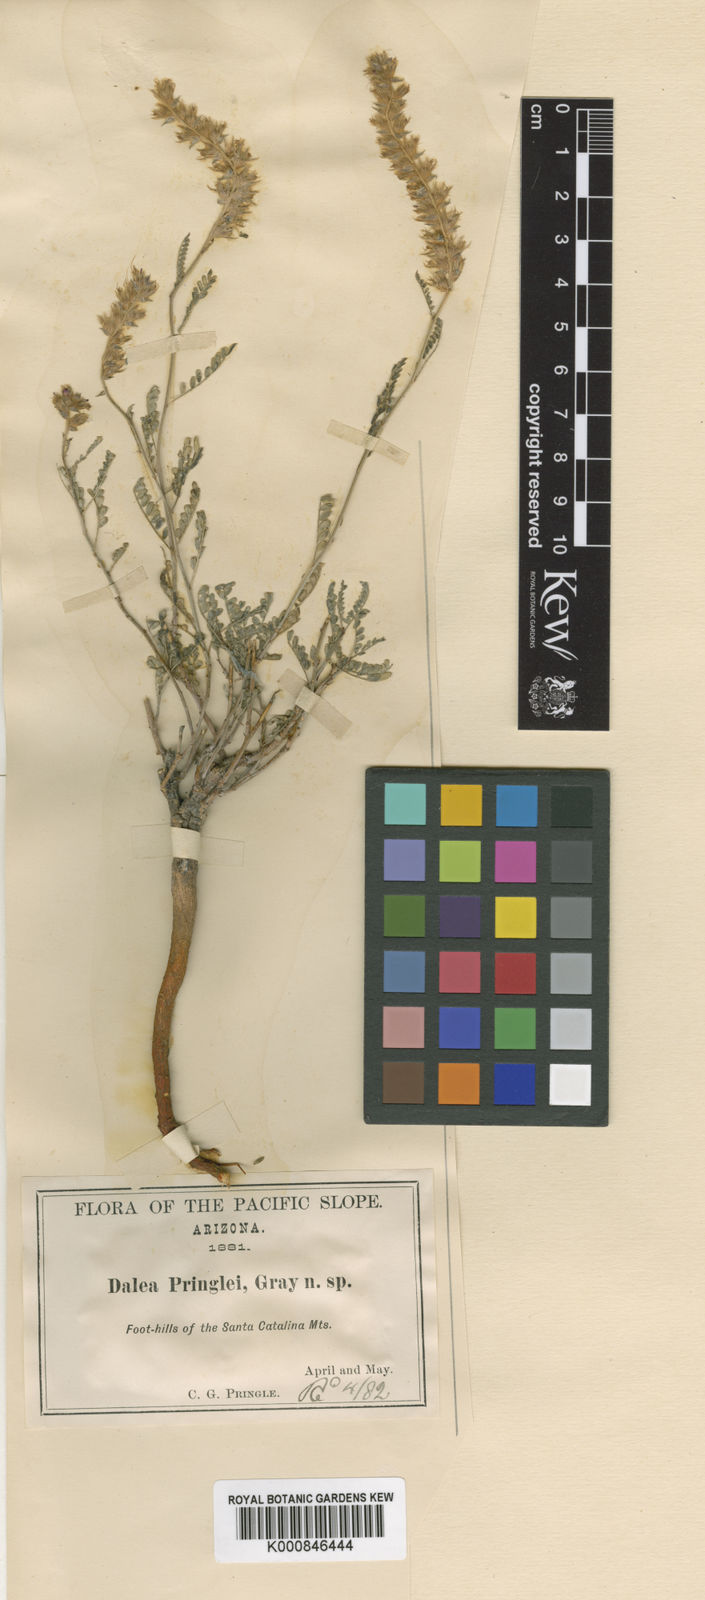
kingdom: Plantae
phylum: Tracheophyta
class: Magnoliopsida
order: Fabales
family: Fabaceae
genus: Dalea
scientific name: Dalea pringlei
